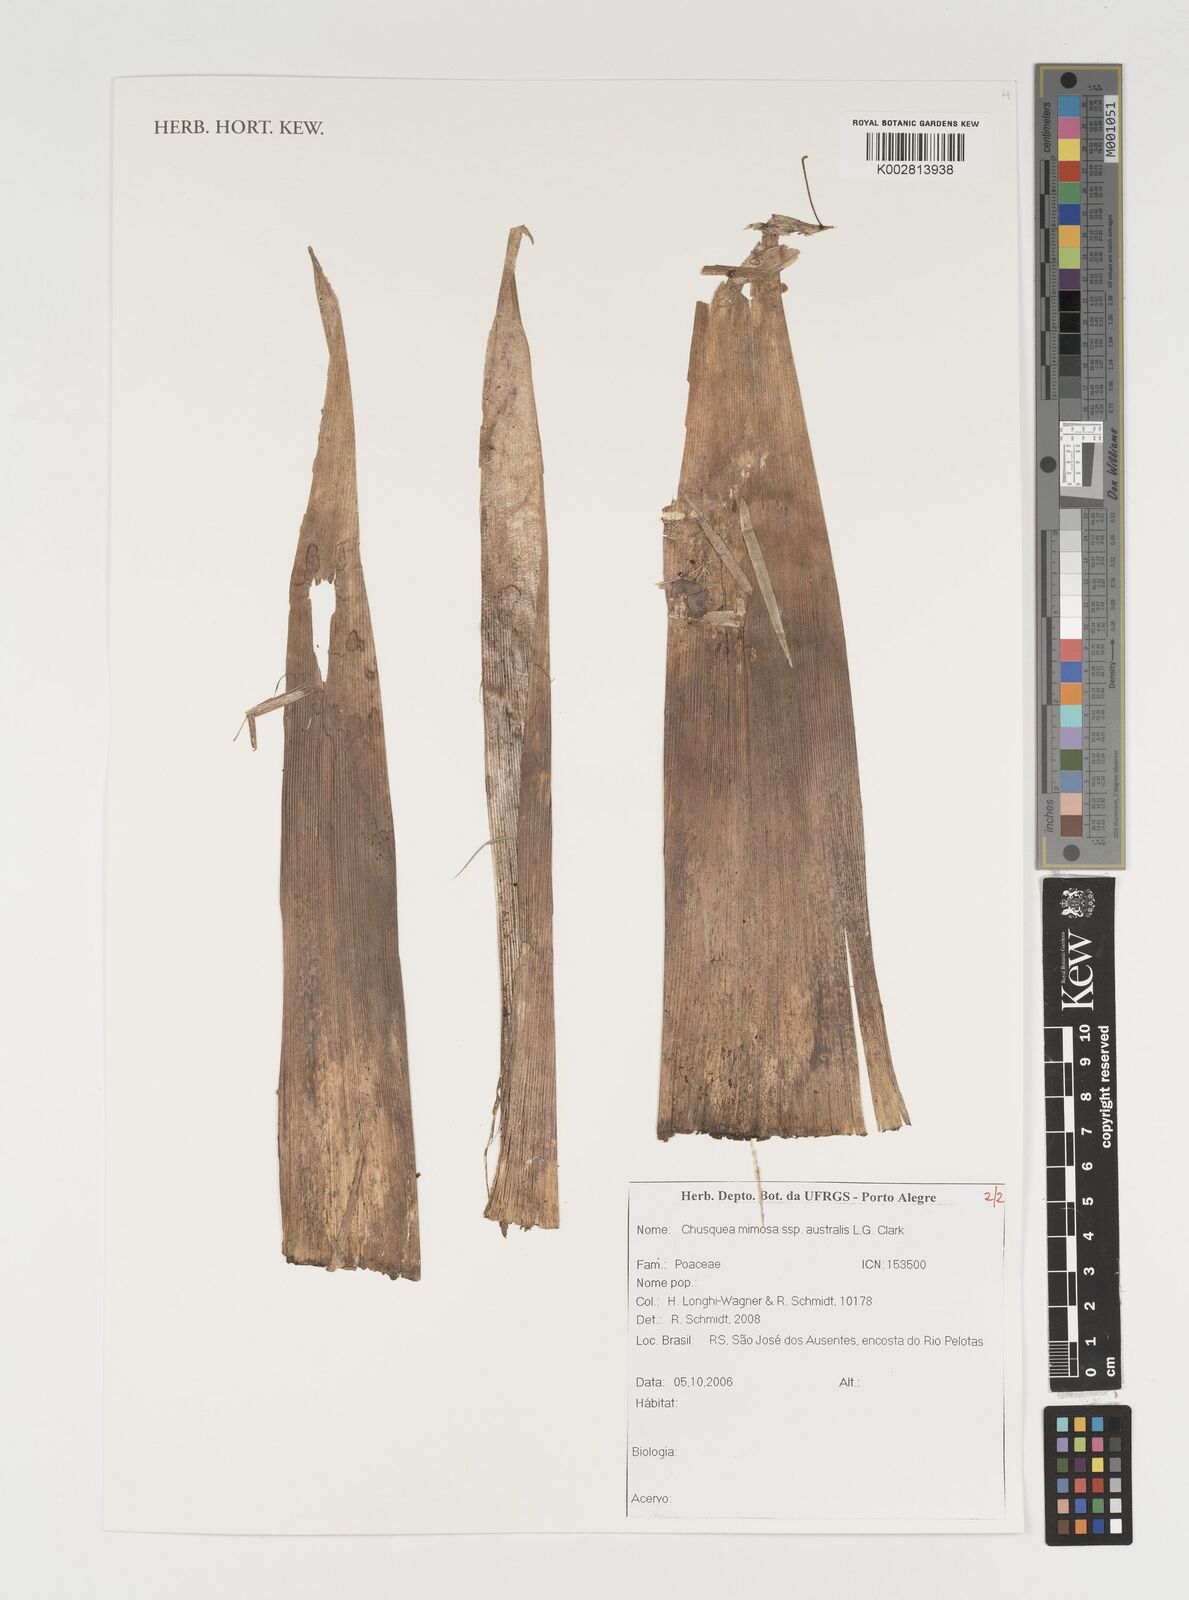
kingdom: Plantae
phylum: Tracheophyta
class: Liliopsida
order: Poales
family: Poaceae
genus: Chusquea
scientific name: Chusquea mimosa
